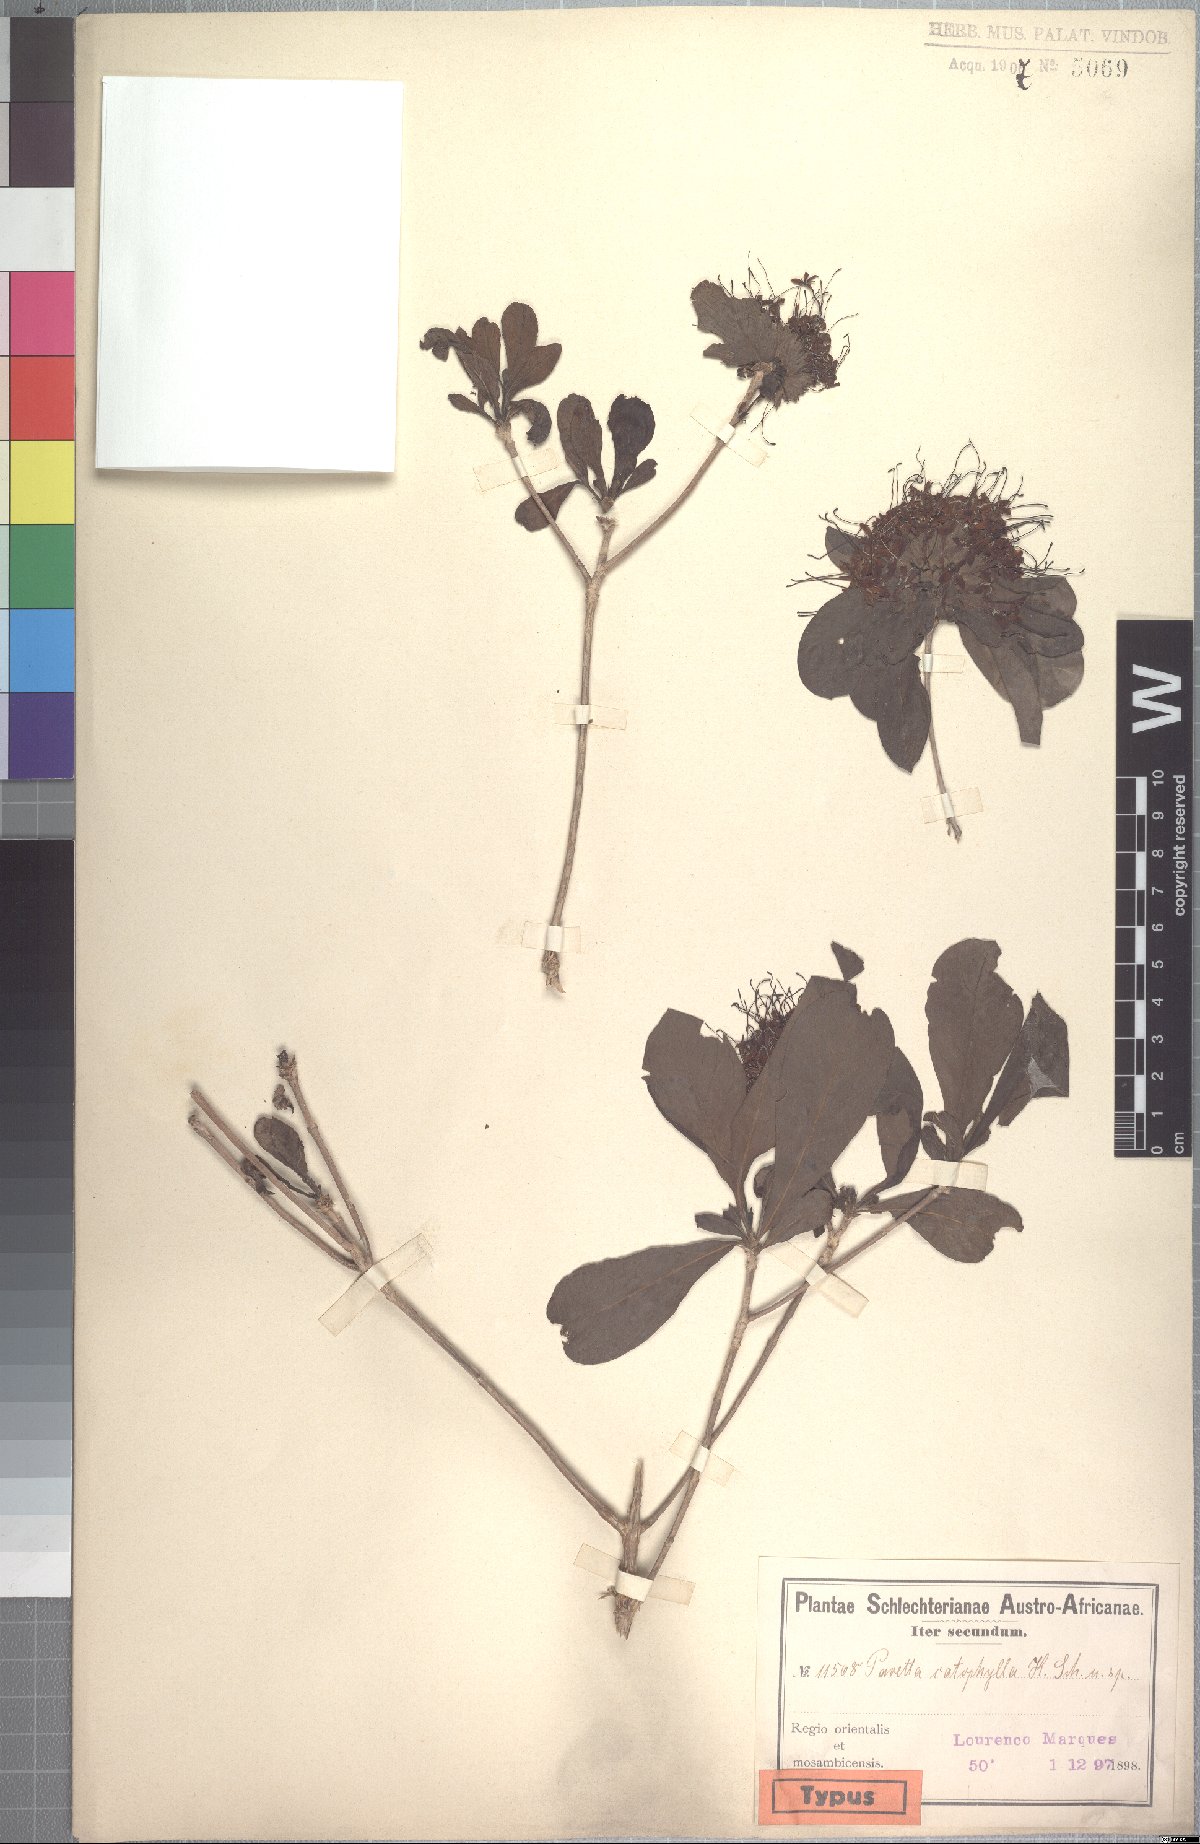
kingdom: Plantae
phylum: Tracheophyta
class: Magnoliopsida
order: Gentianales
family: Rubiaceae
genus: Pavetta
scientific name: Pavetta catophylla
